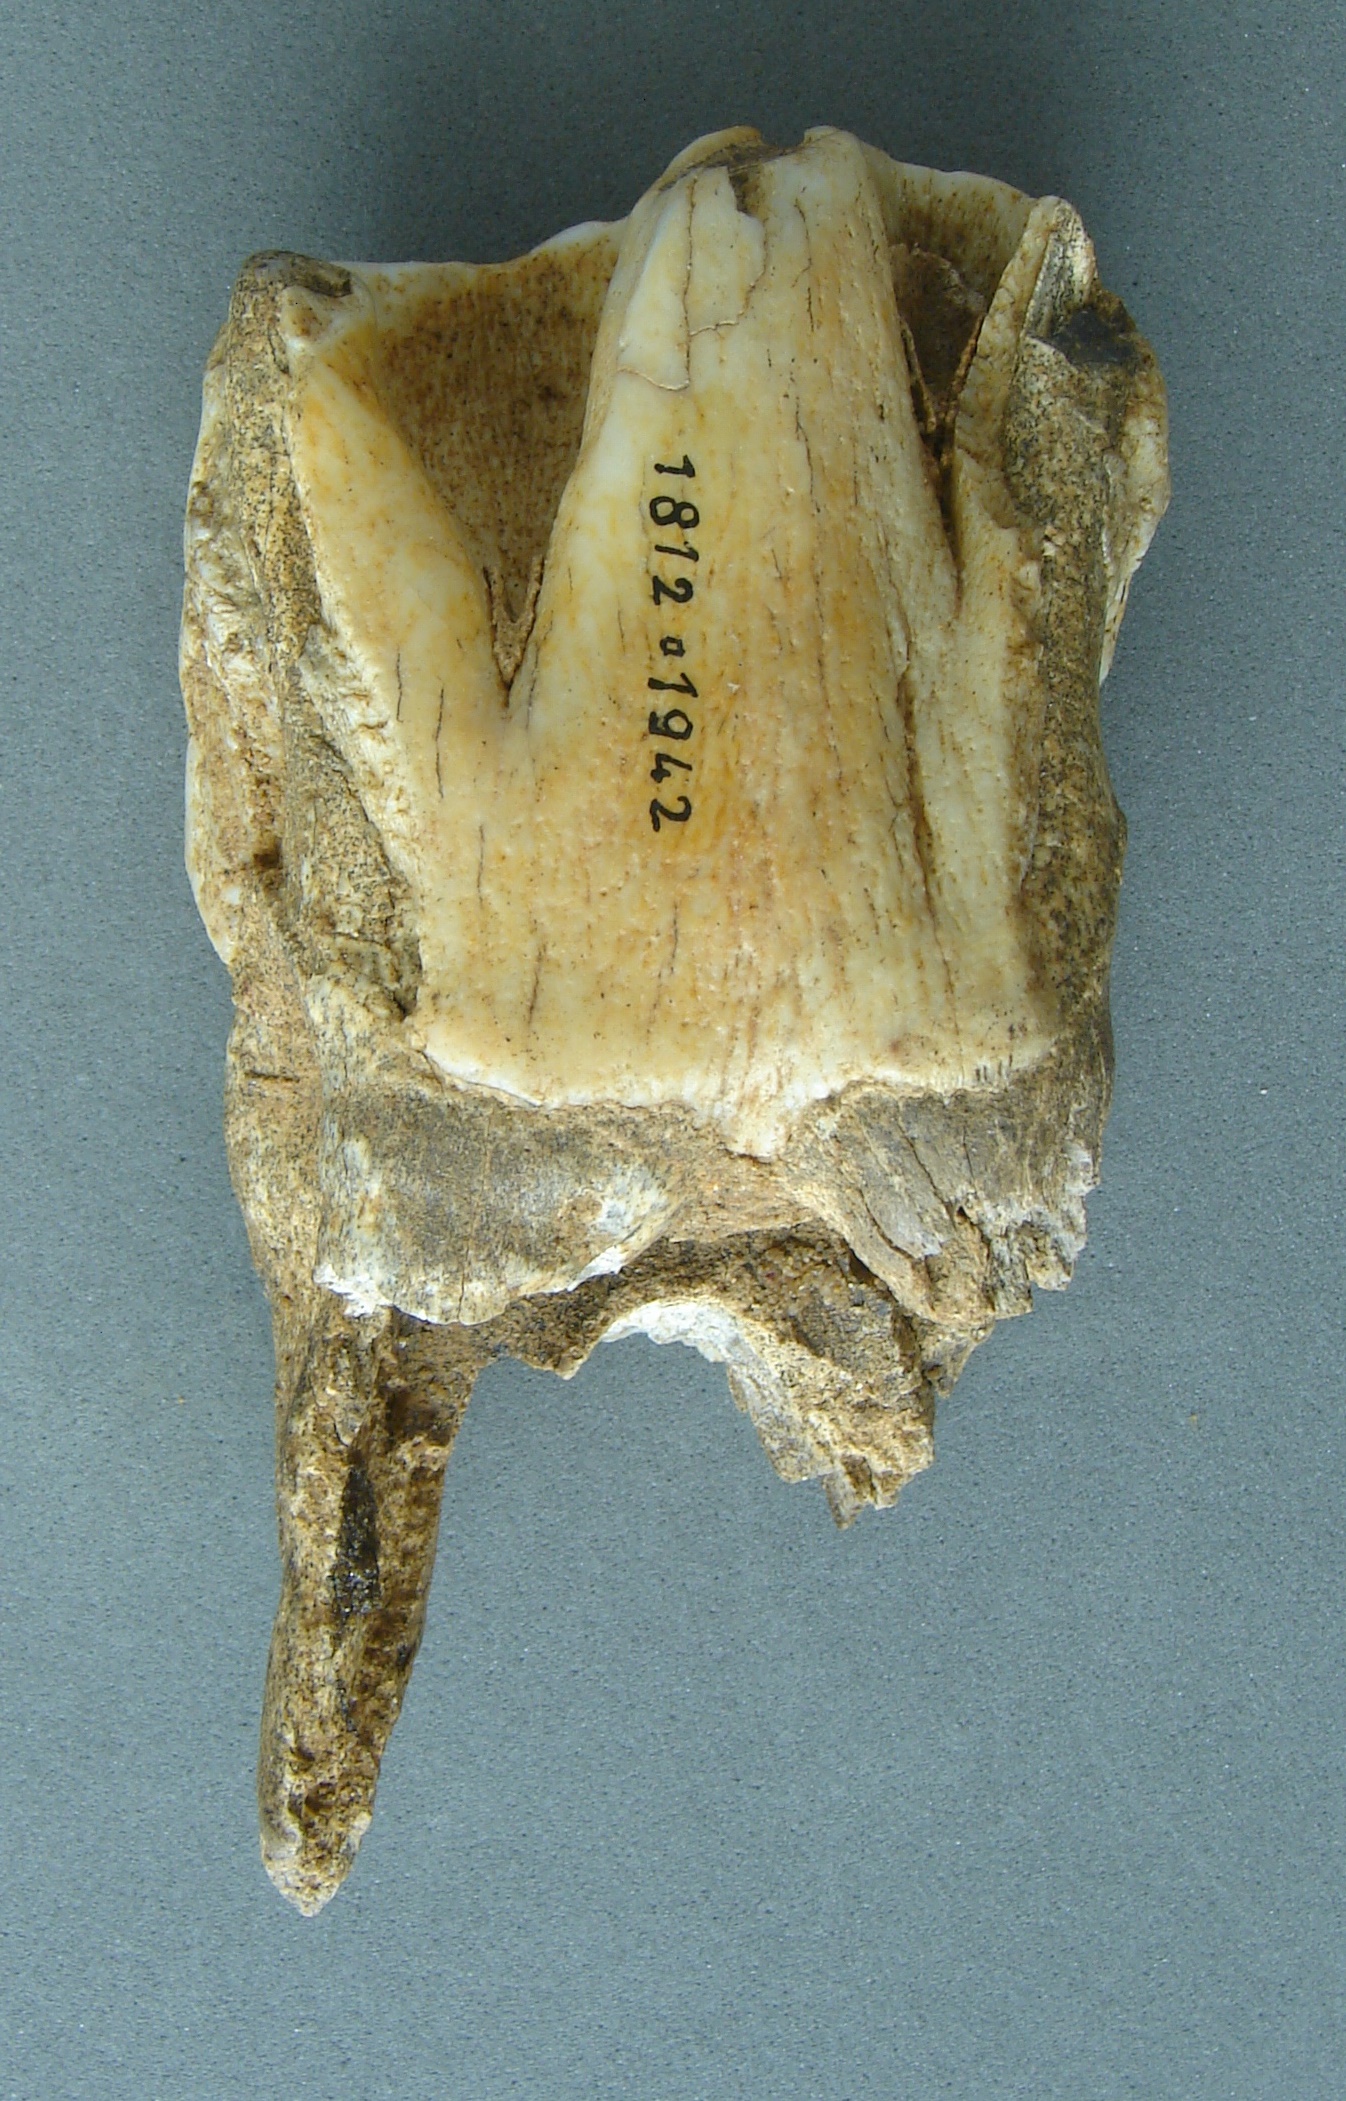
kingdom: Animalia
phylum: Chordata
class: Mammalia
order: Perissodactyla
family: Rhinocerotidae
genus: Rhinoceros
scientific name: Rhinoceros
